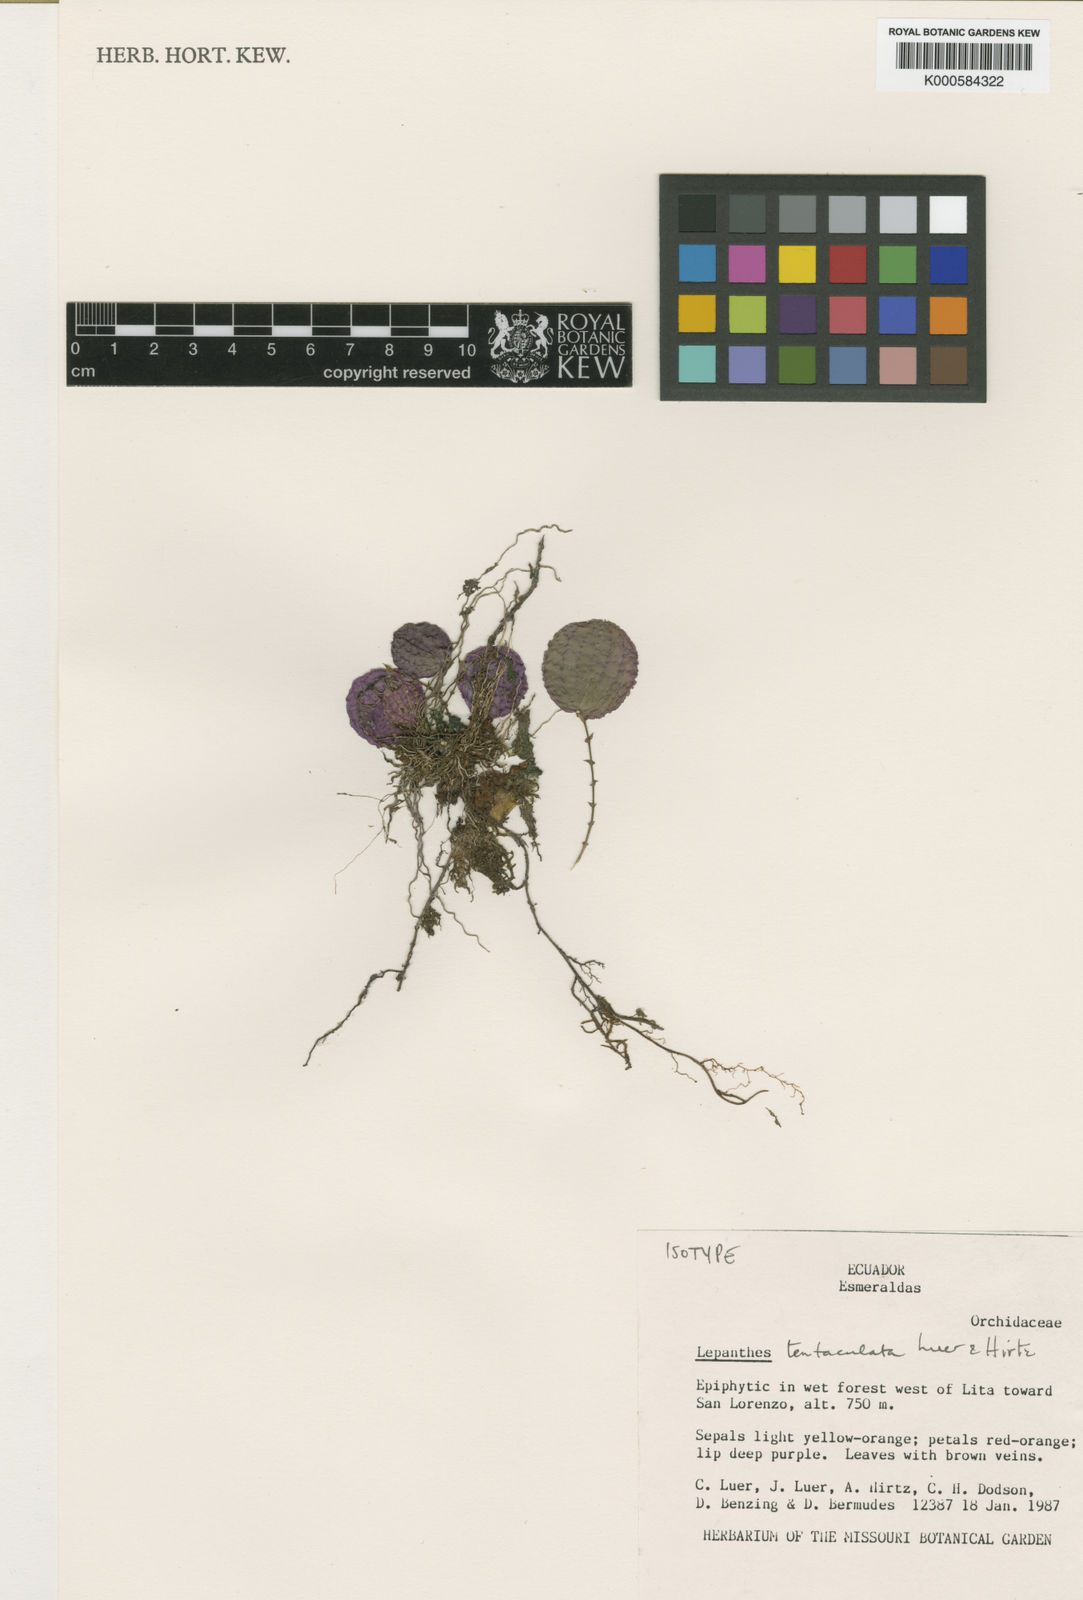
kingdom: Plantae
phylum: Tracheophyta
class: Liliopsida
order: Asparagales
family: Orchidaceae
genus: Lepanthes
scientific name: Lepanthes tentaculata
